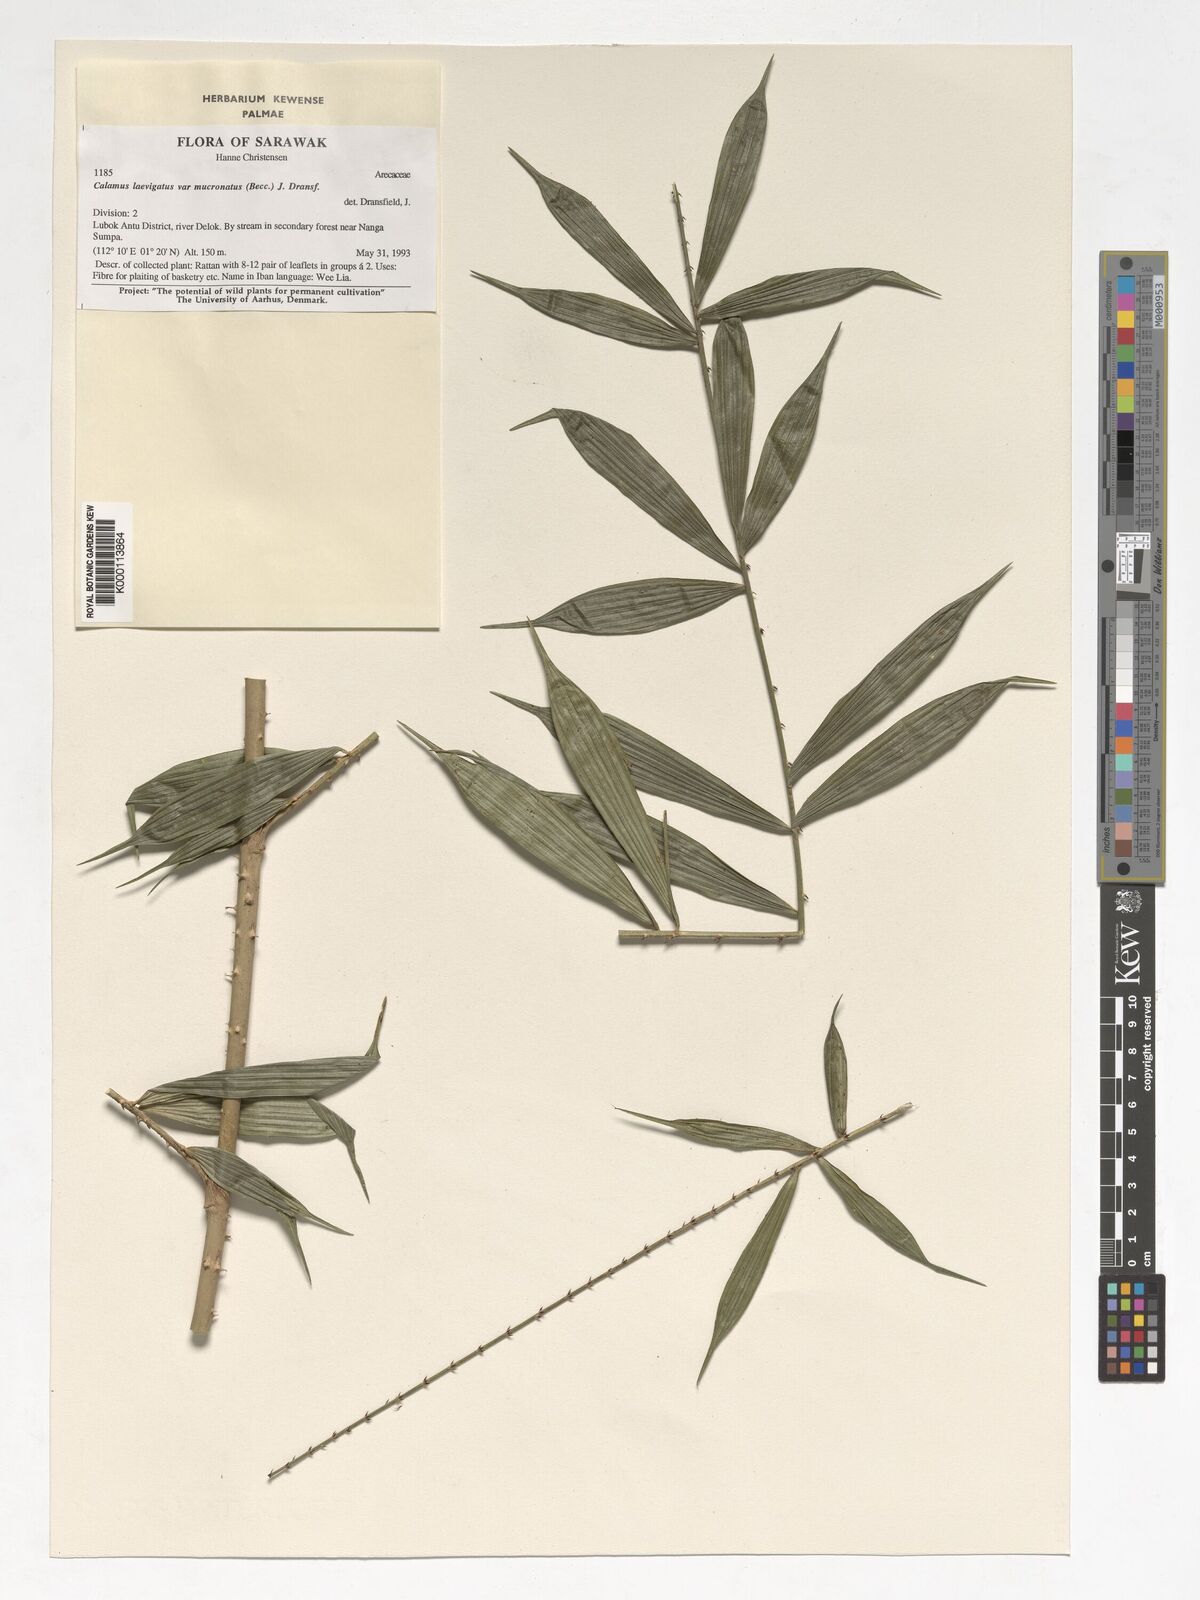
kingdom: Plantae
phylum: Tracheophyta
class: Liliopsida
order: Arecales
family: Arecaceae
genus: Calamus
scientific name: Calamus plicatus
